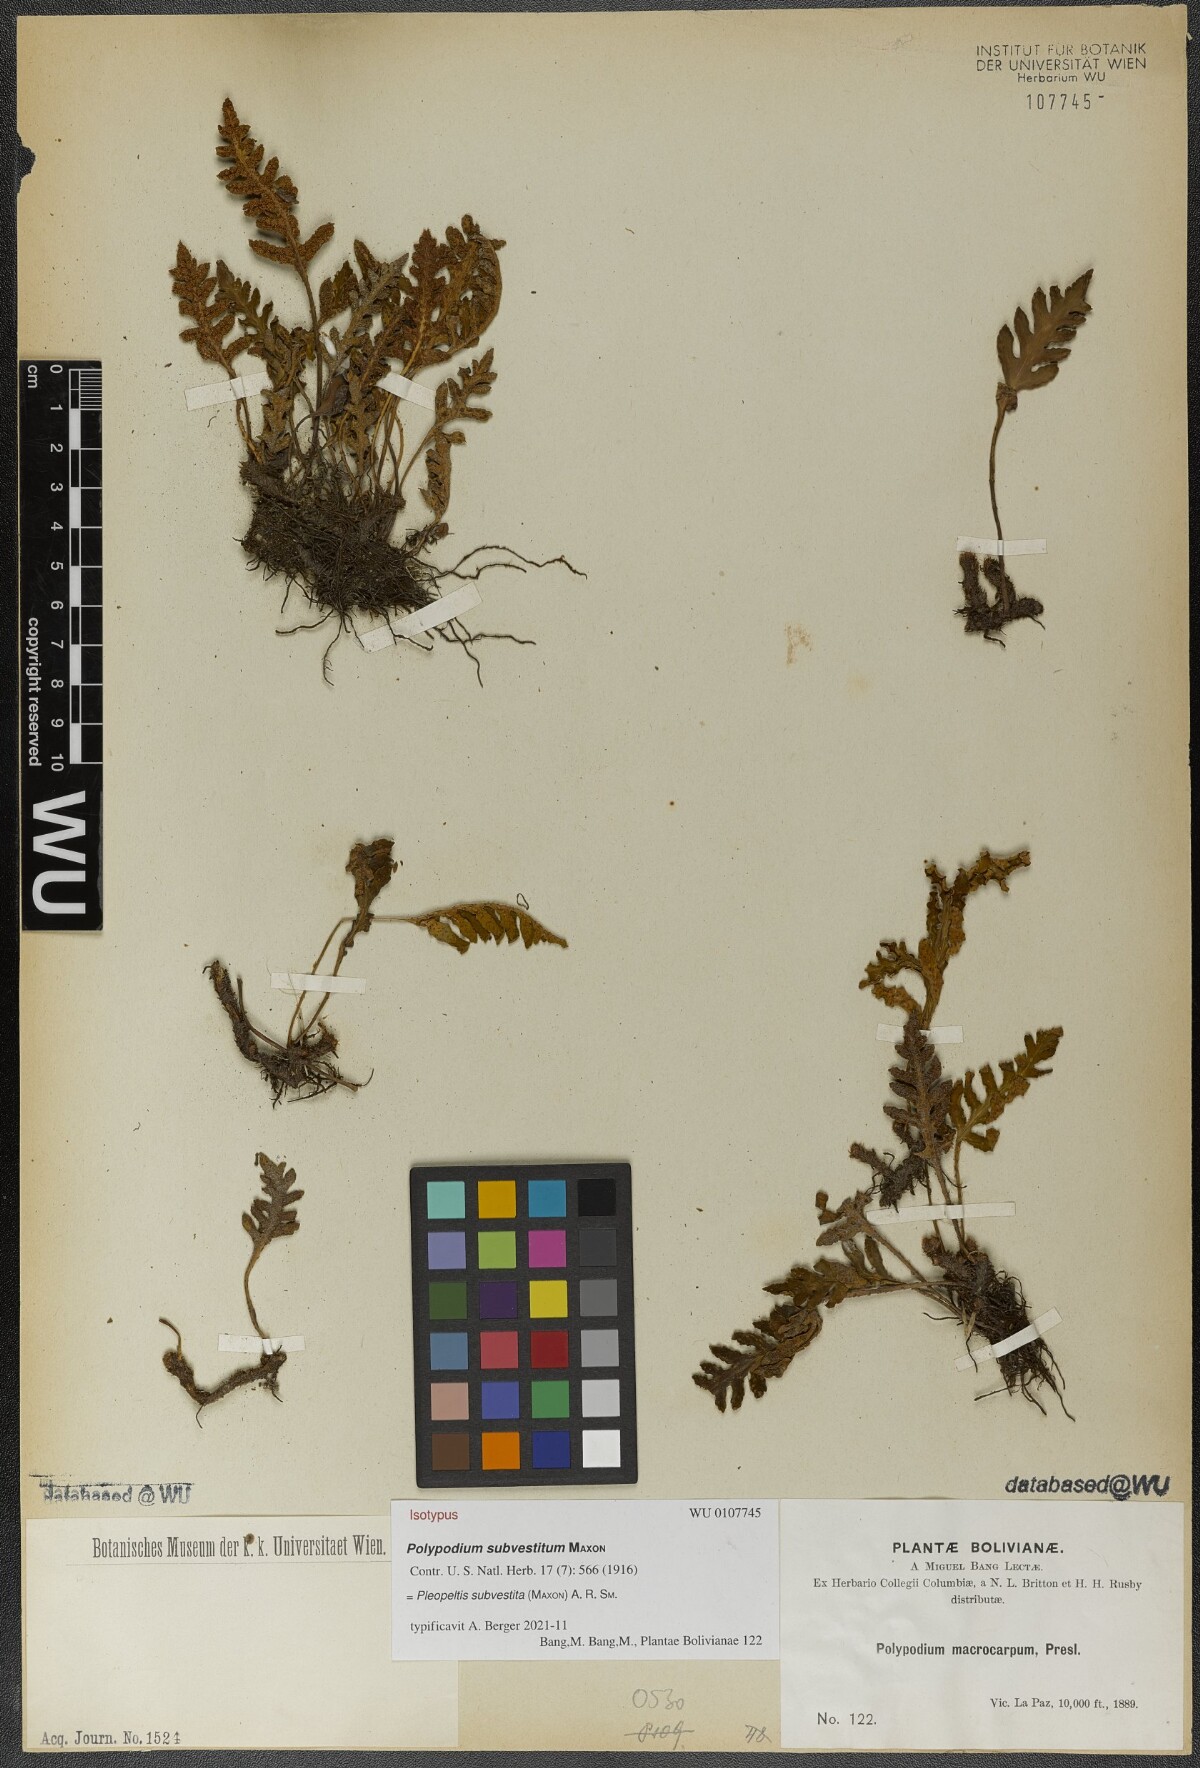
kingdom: Plantae
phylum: Tracheophyta
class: Polypodiopsida
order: Polypodiales
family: Polypodiaceae
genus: Pleopeltis
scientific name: Pleopeltis subvestita
